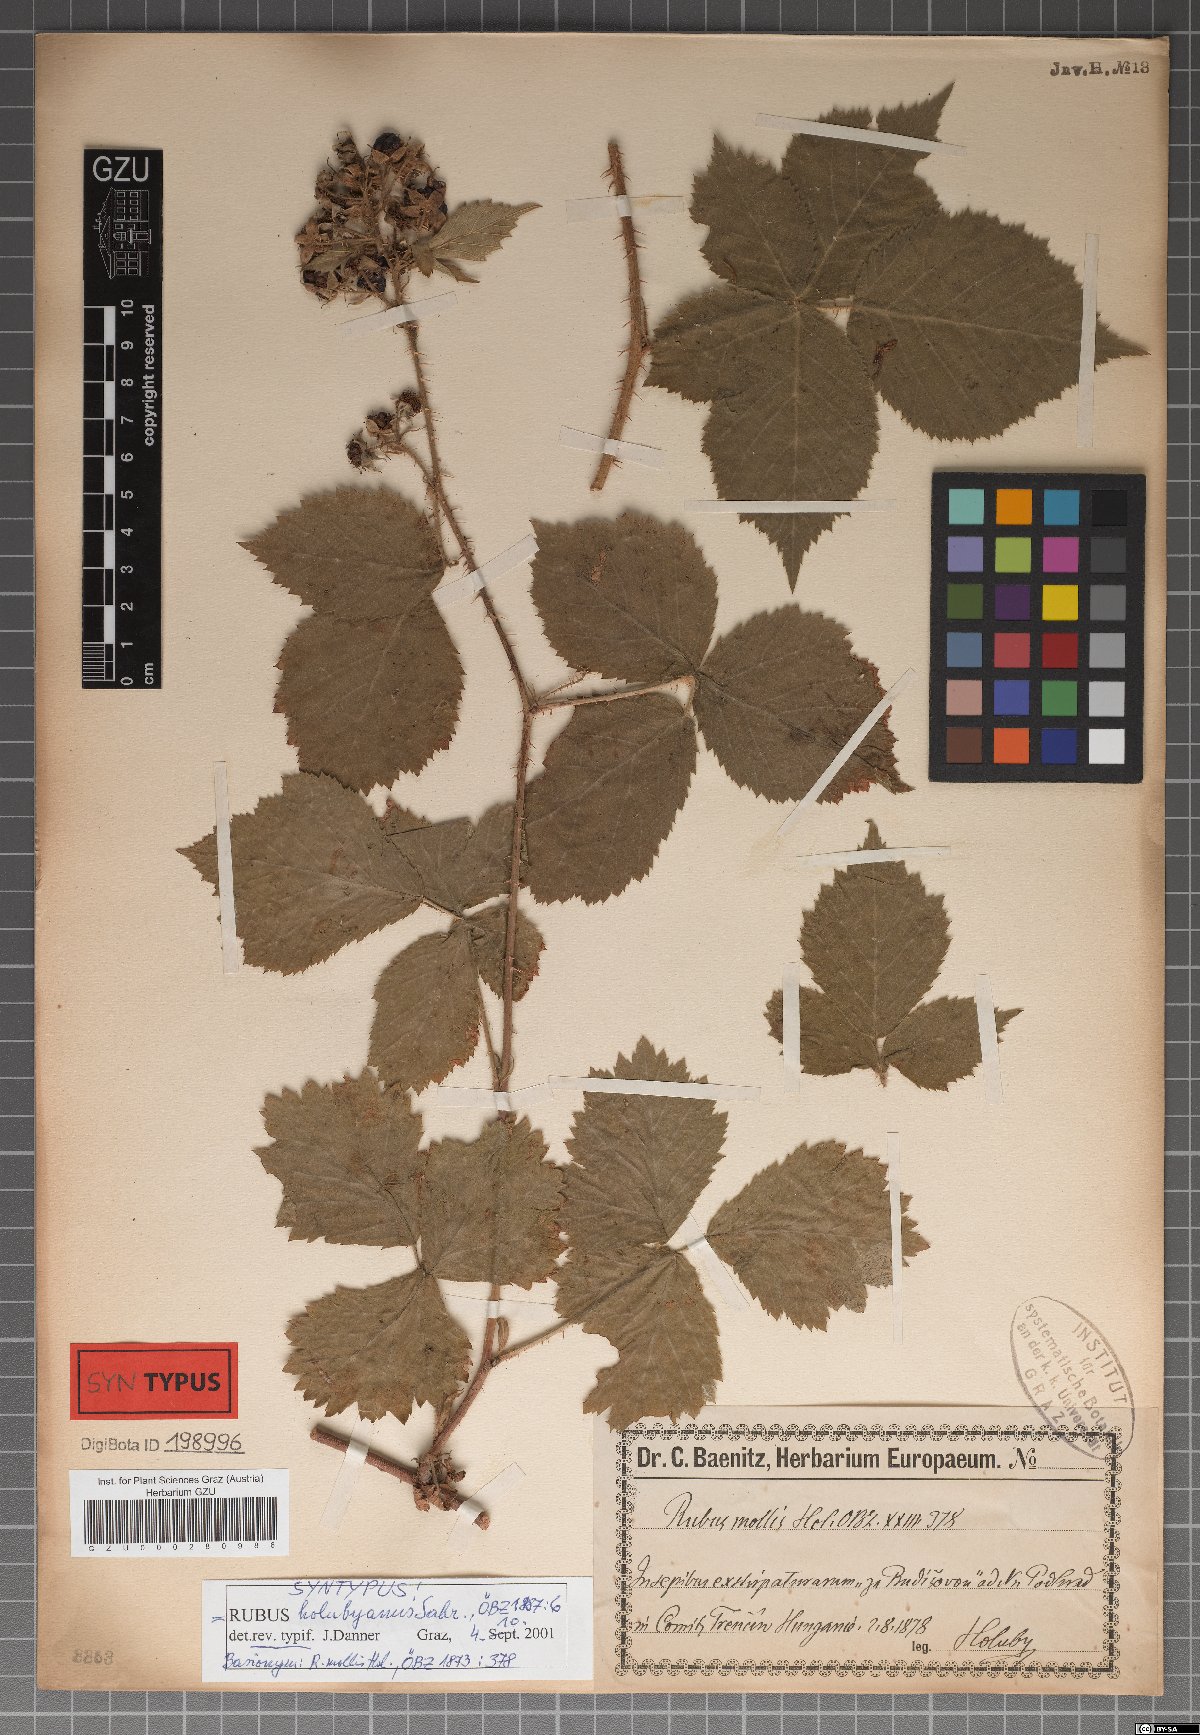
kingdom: Plantae
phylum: Tracheophyta
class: Magnoliopsida
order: Rosales
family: Rosaceae
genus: Rubus
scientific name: Rubus holubyanus
